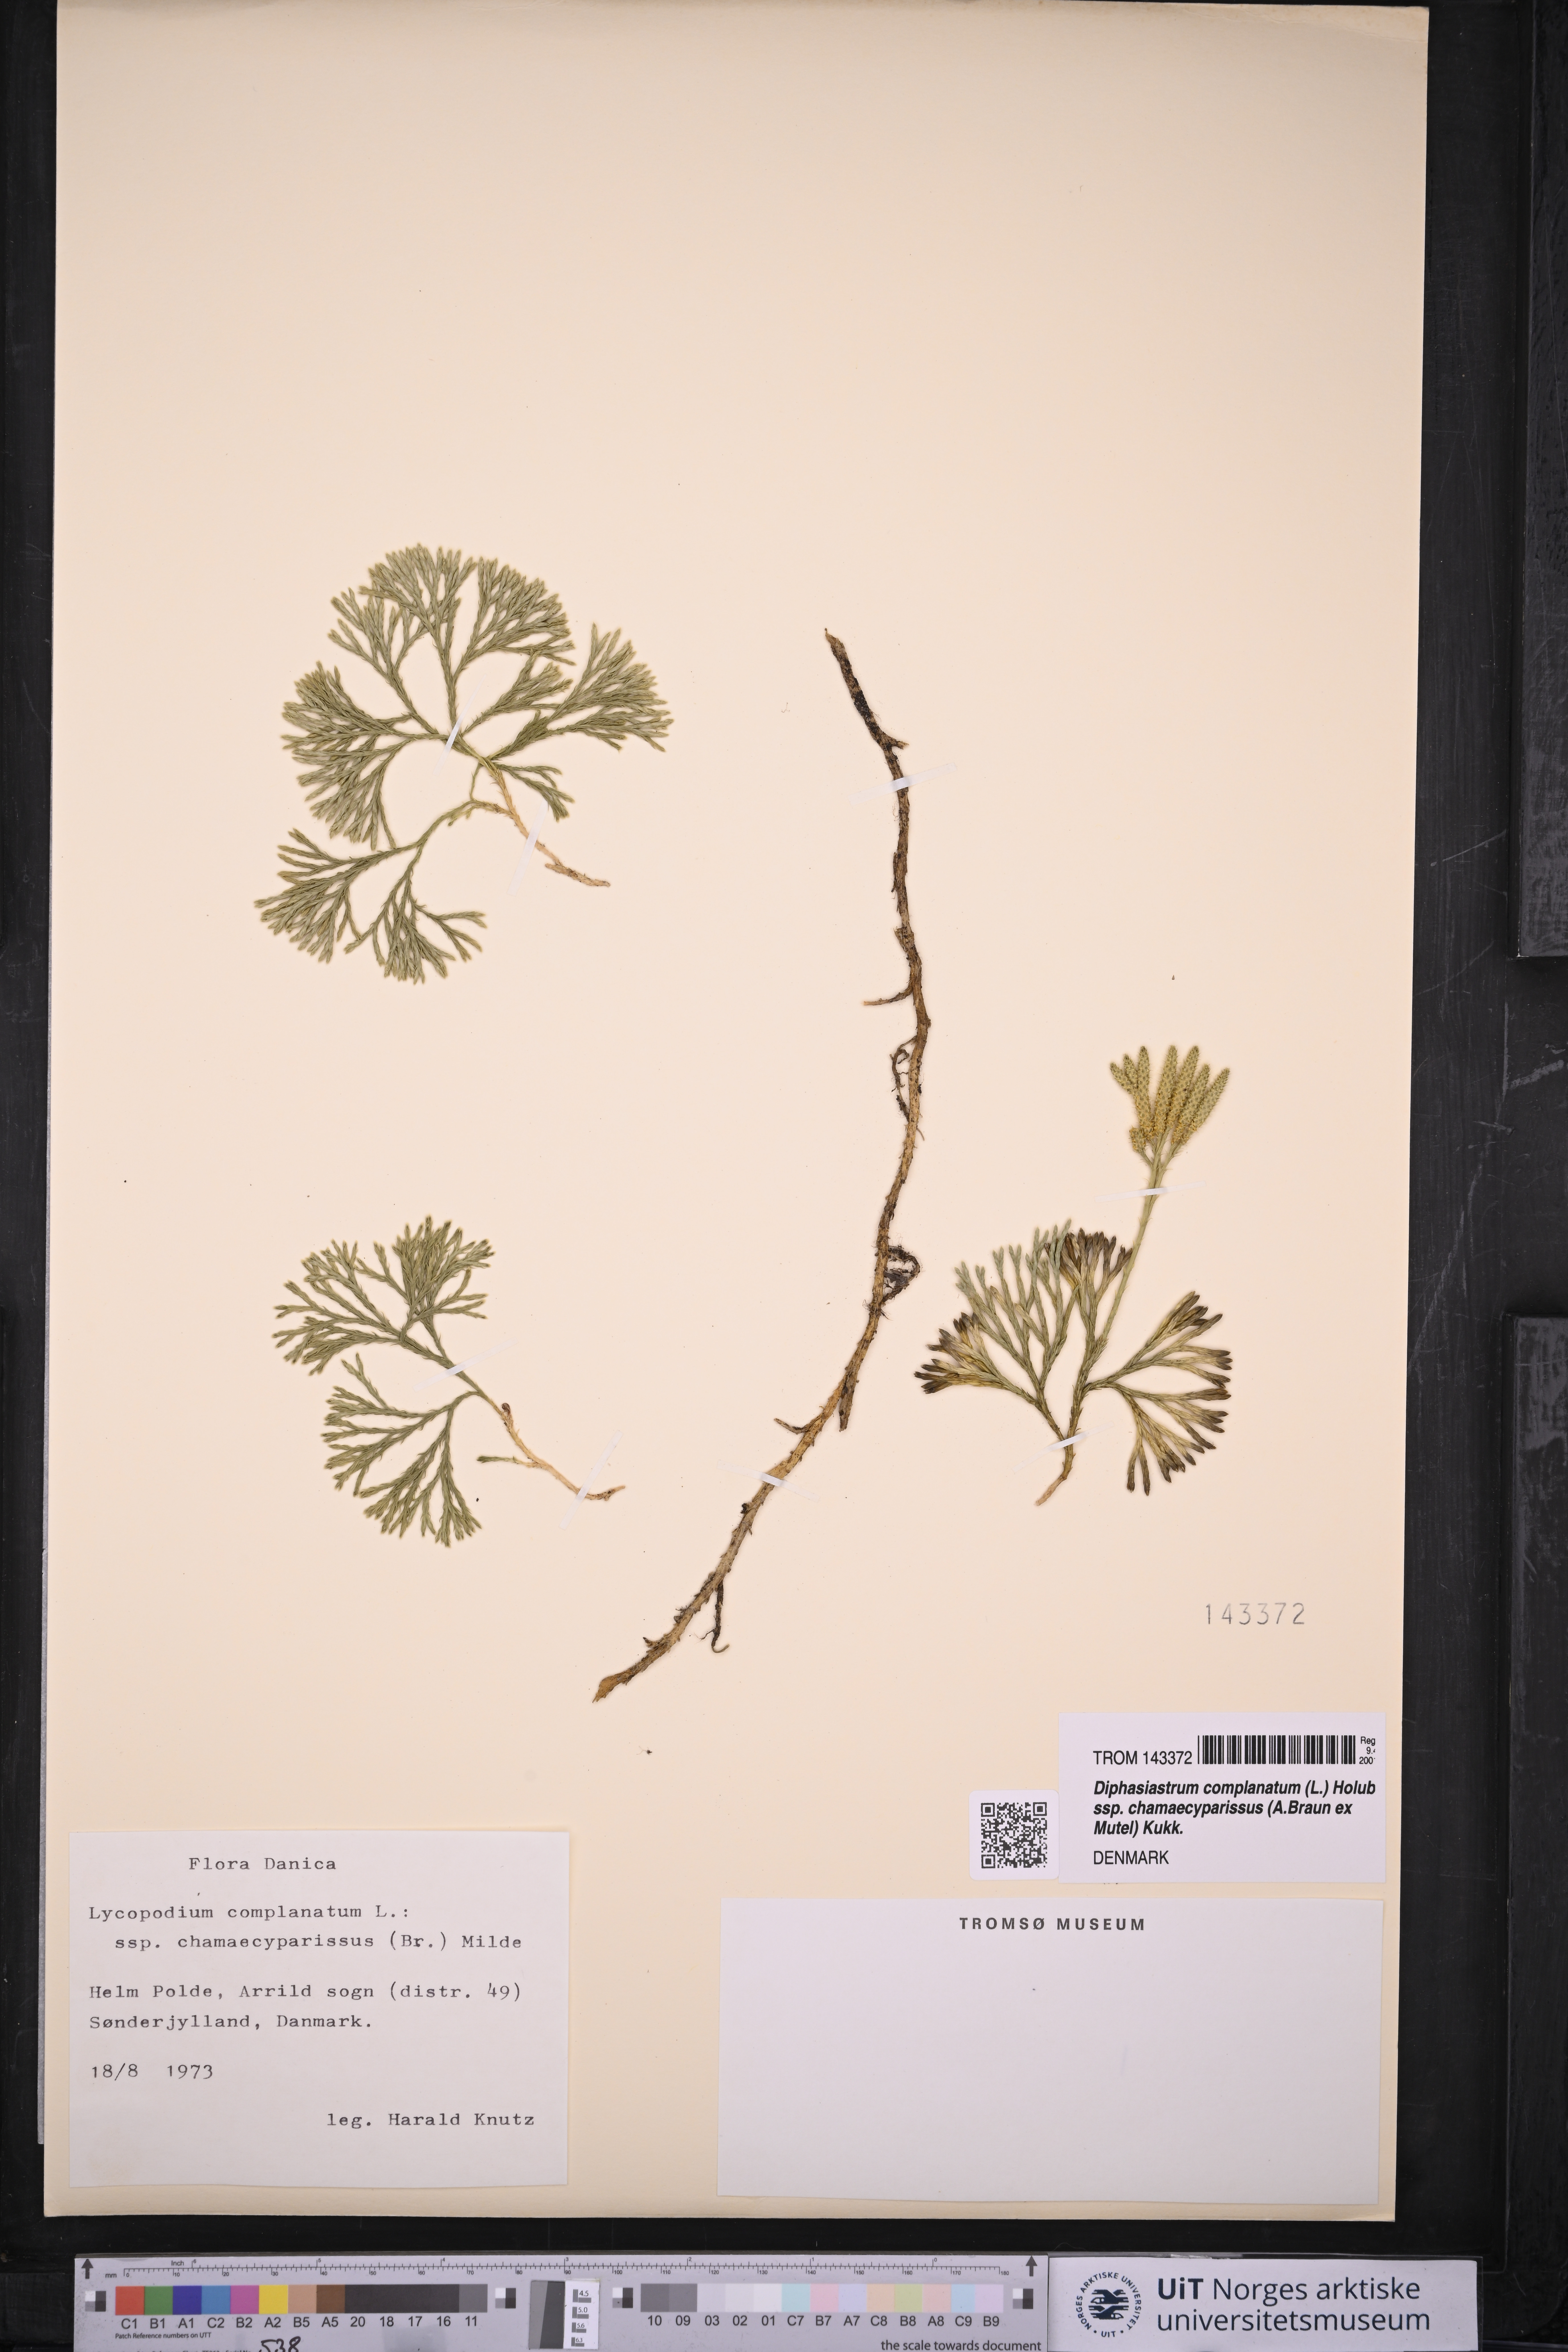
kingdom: Plantae
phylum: Tracheophyta
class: Lycopodiopsida
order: Lycopodiales
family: Lycopodiaceae
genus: Diphasiastrum
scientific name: Diphasiastrum tristachyum
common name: Blue ground-cedar
